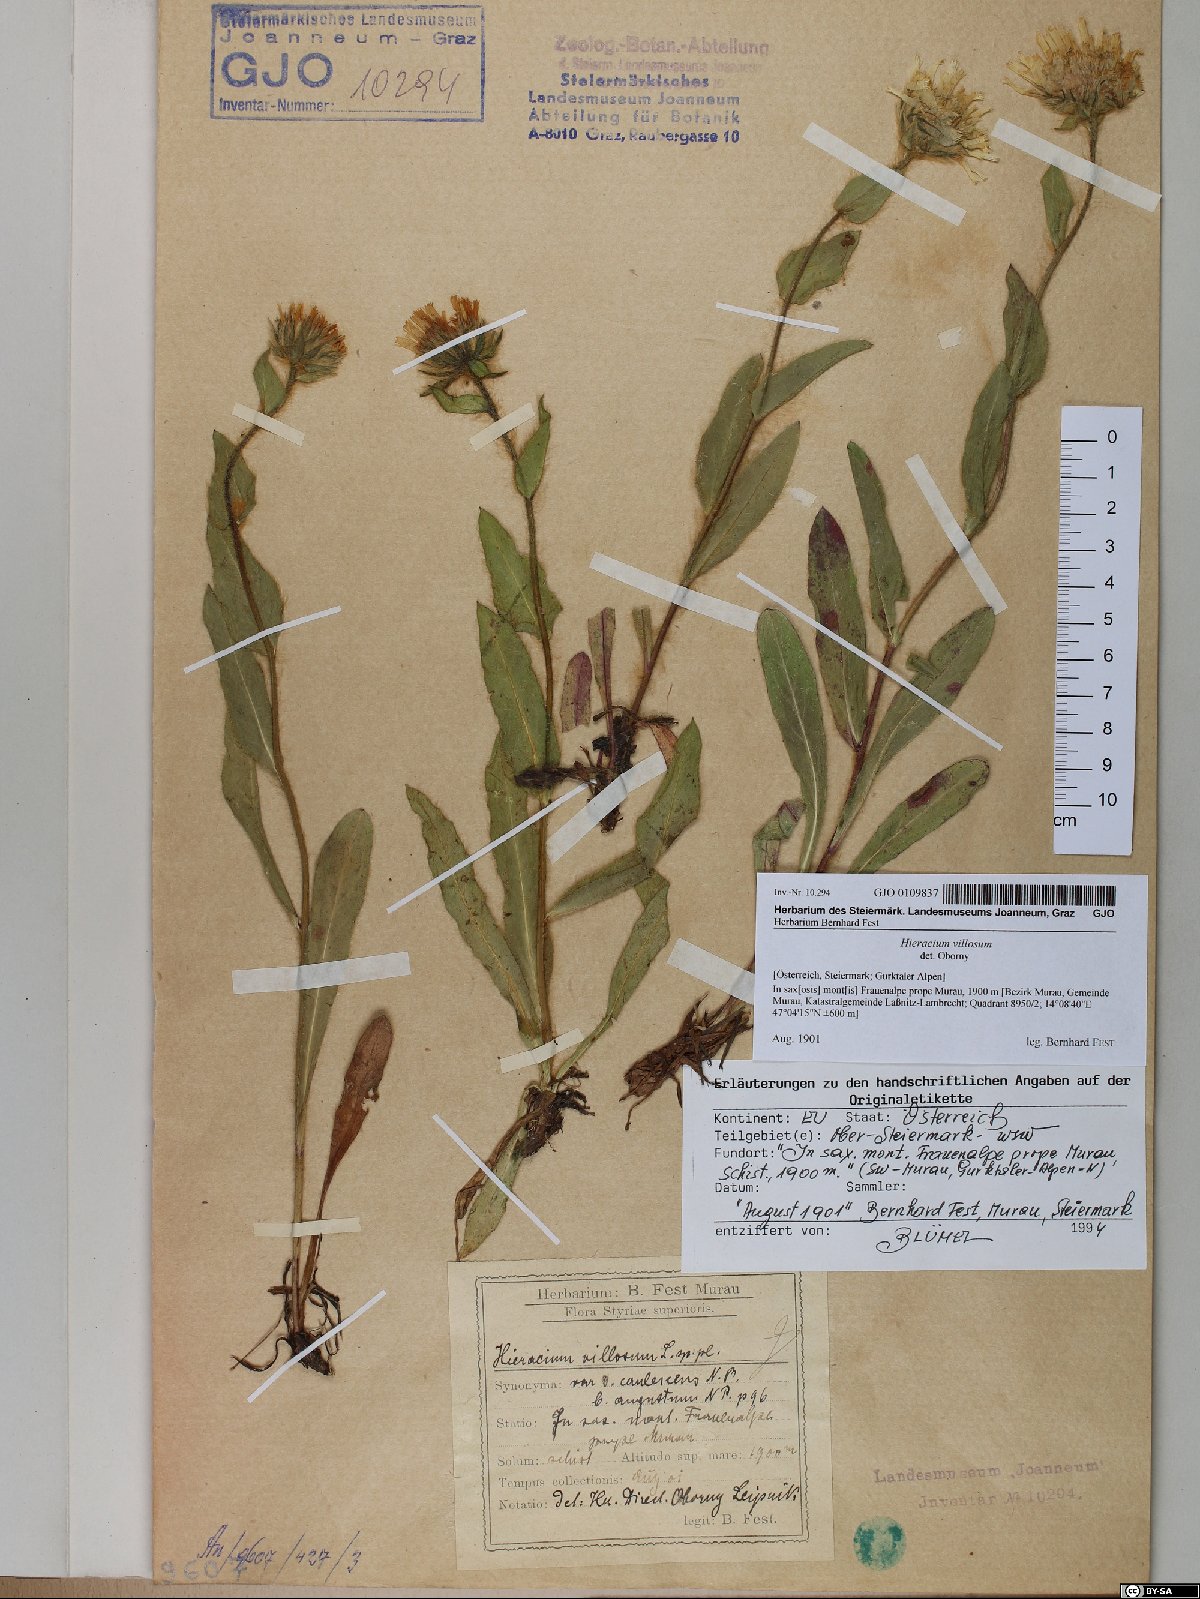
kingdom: Plantae
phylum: Tracheophyta
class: Magnoliopsida
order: Asterales
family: Asteraceae
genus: Hieracium
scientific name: Hieracium villosum
